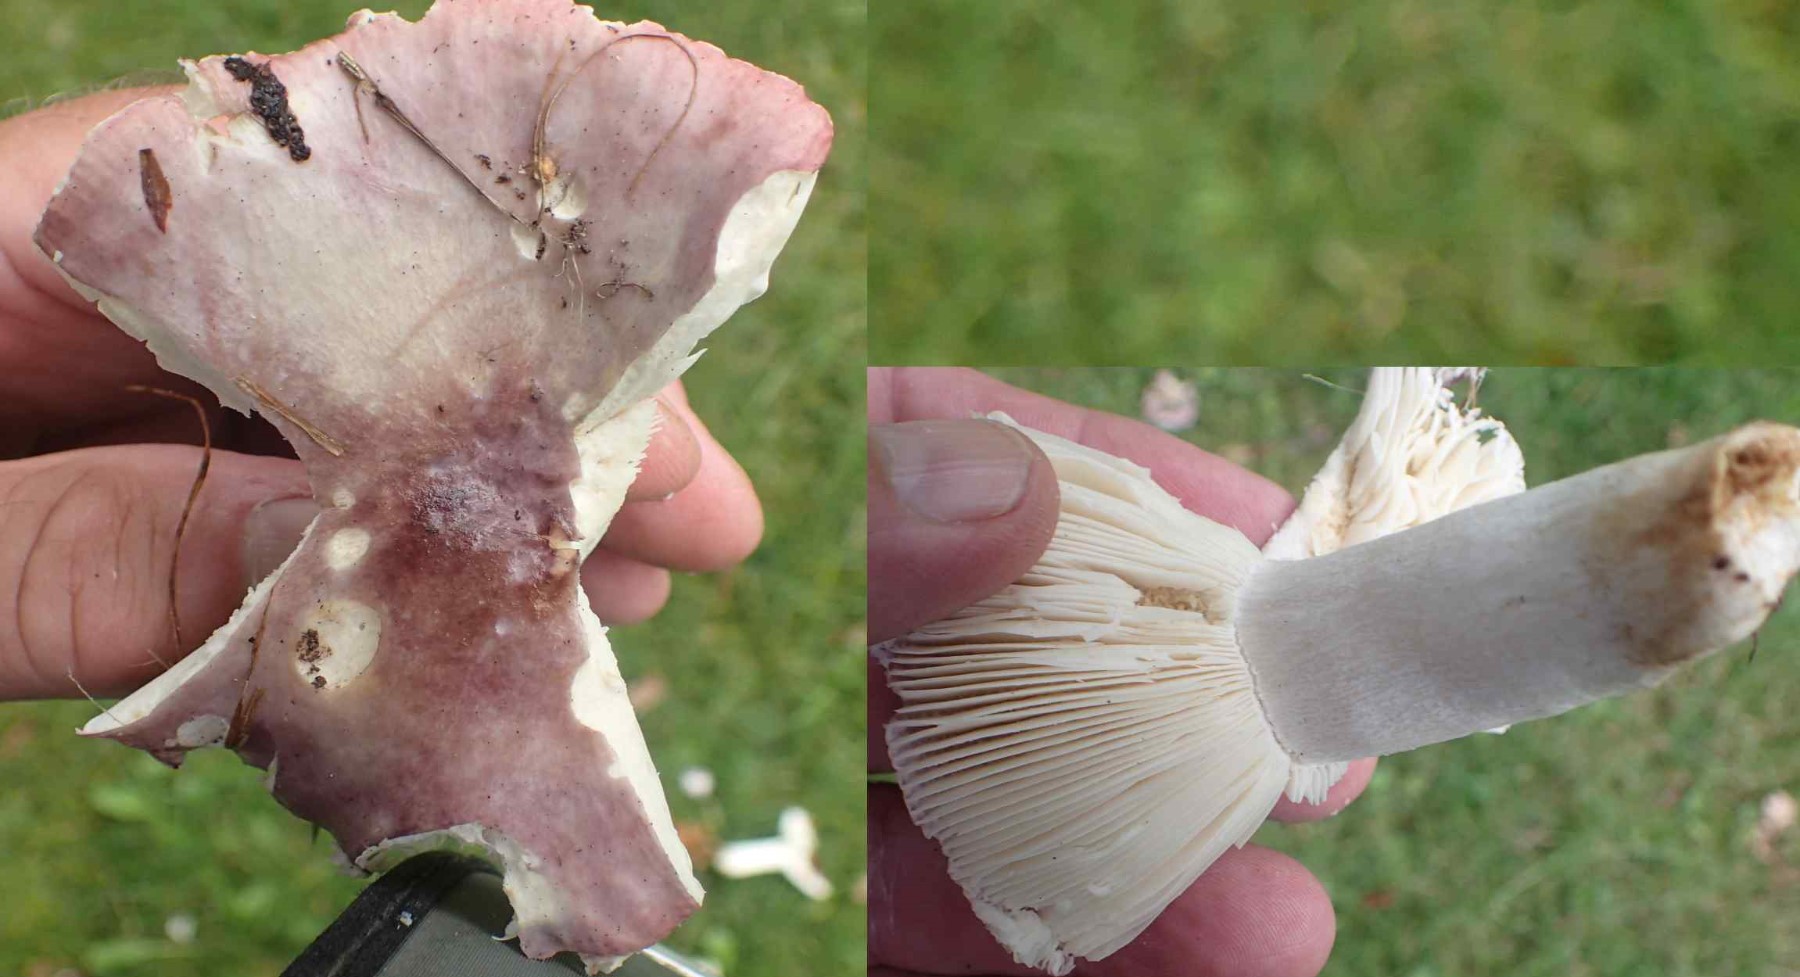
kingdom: Fungi
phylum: Basidiomycota
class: Agaricomycetes
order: Russulales
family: Russulaceae
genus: Russula
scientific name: Russula atropurpurea
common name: purpurbroget skørhat
